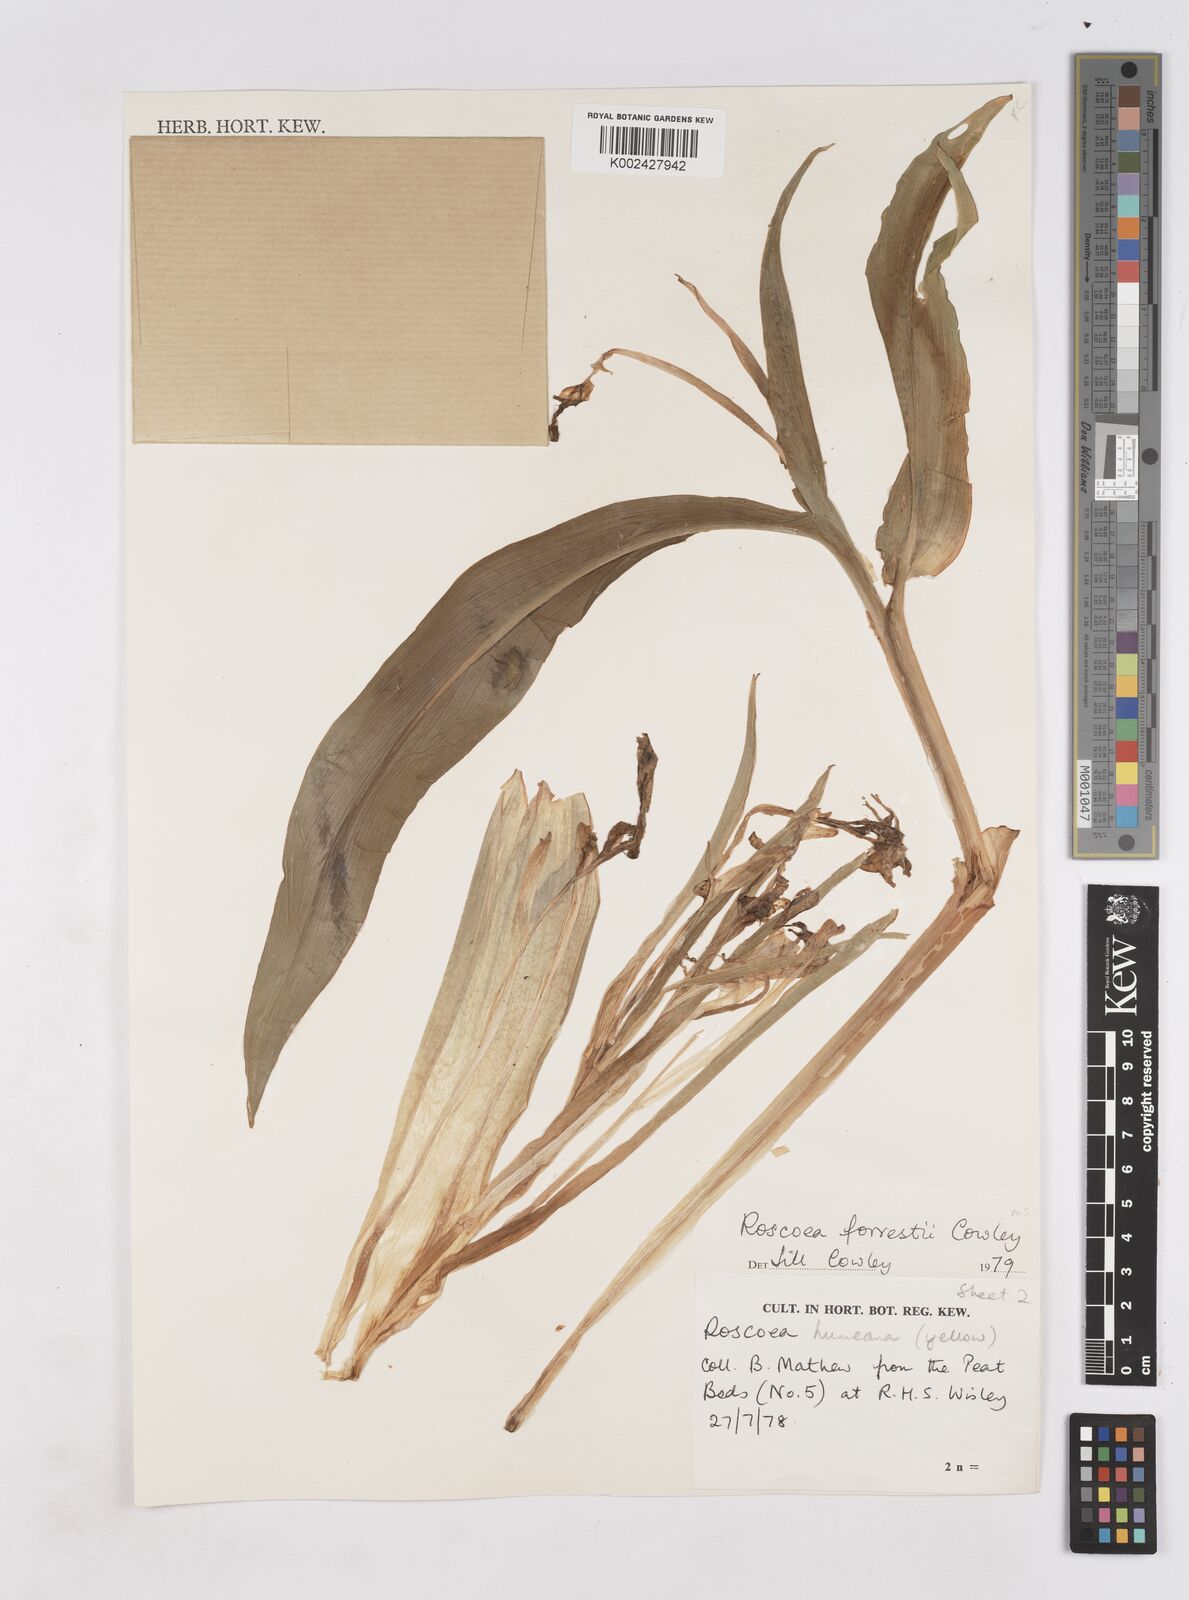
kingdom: Plantae
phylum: Tracheophyta
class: Liliopsida
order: Zingiberales
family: Zingiberaceae
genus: Roscoea
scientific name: Roscoea forrestii
